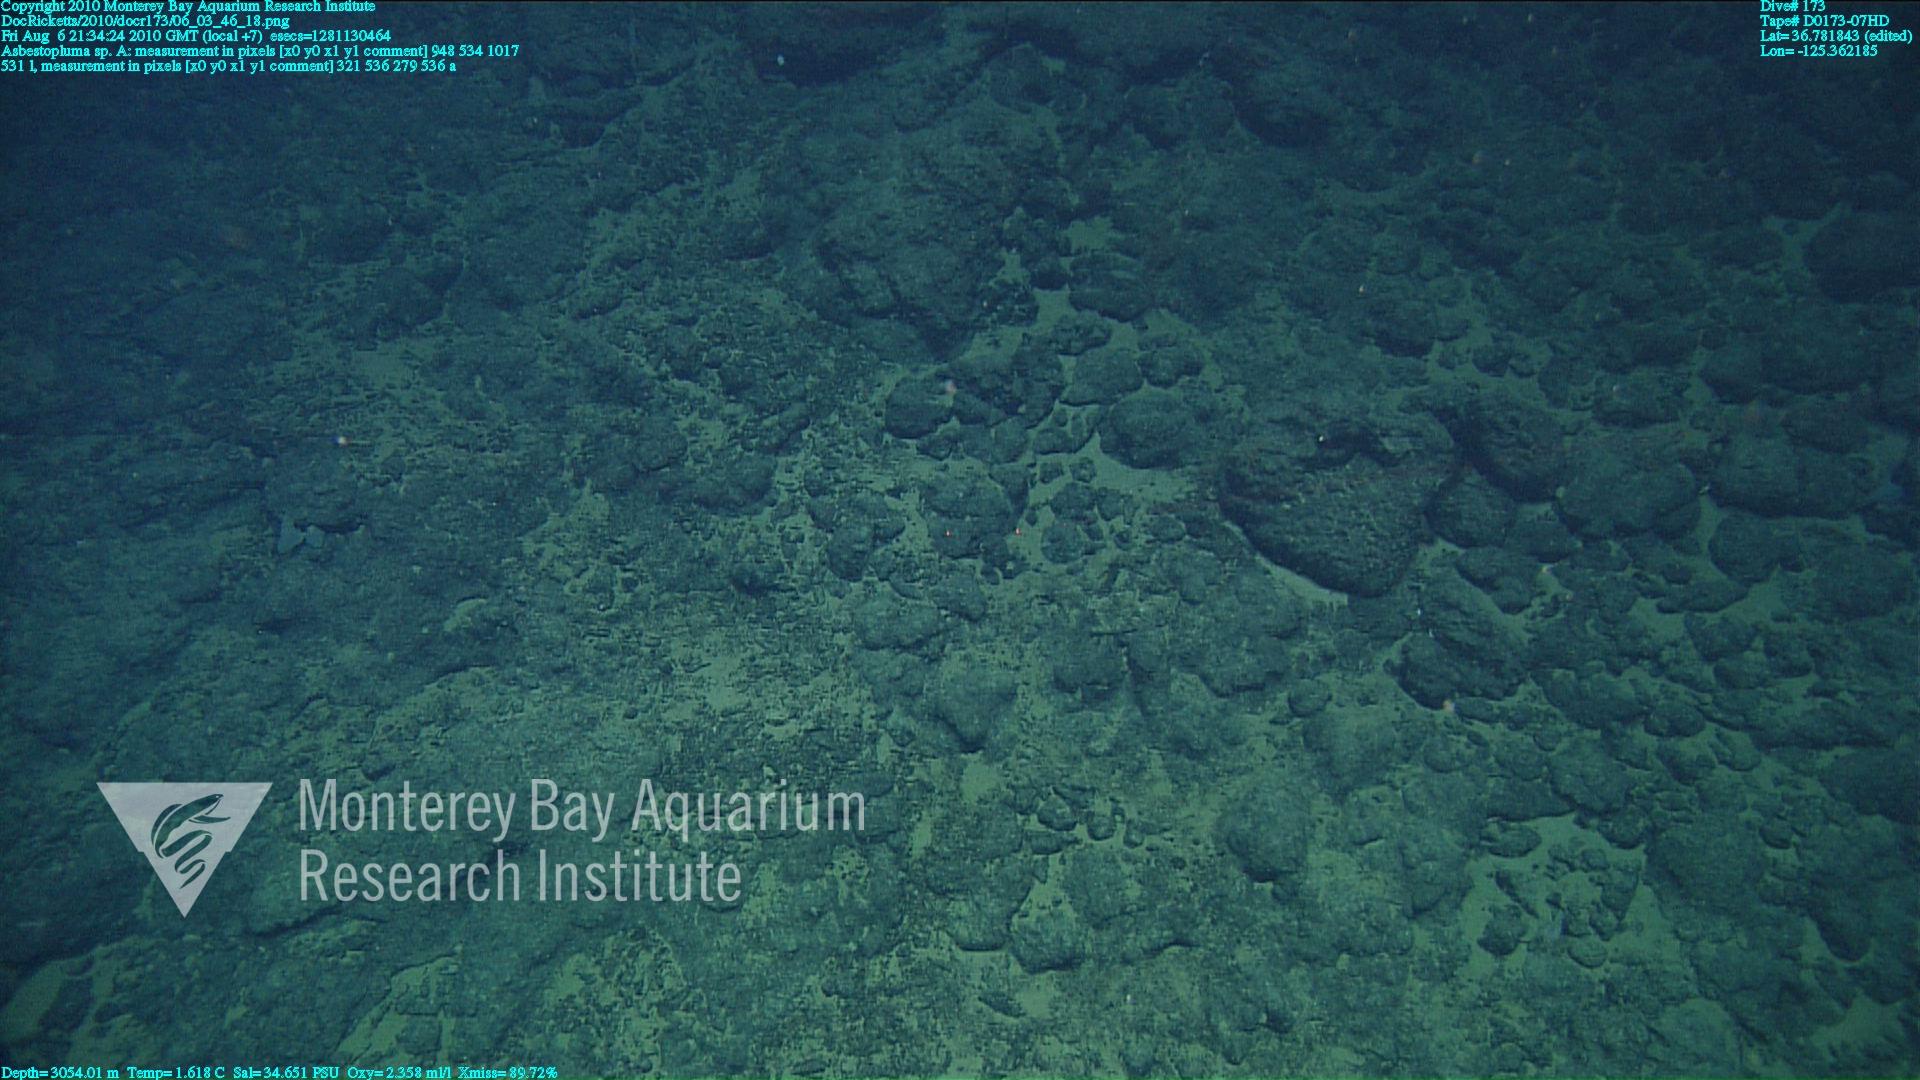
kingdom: Animalia
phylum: Porifera
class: Demospongiae
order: Poecilosclerida
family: Cladorhizidae
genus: Asbestopluma
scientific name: Asbestopluma
